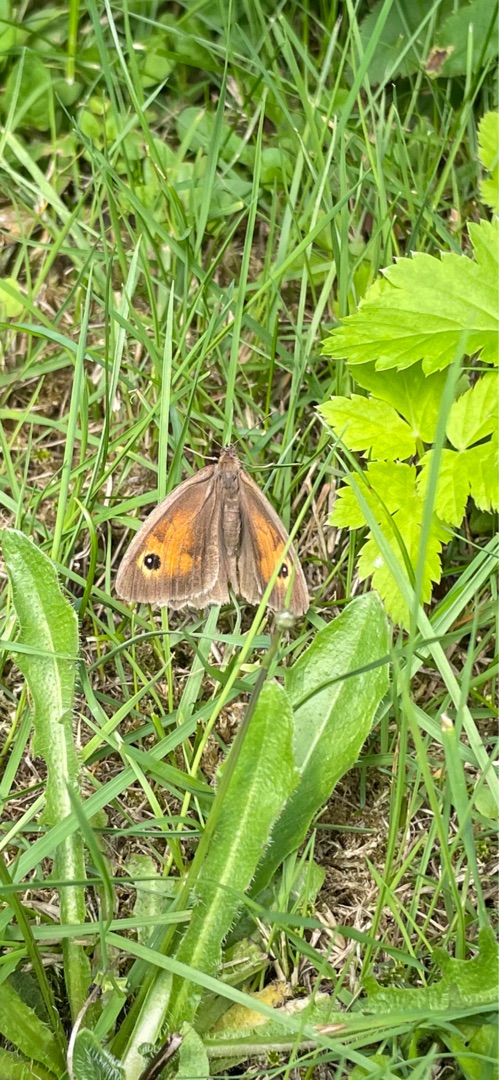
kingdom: Animalia
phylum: Arthropoda
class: Insecta
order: Lepidoptera
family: Nymphalidae
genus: Maniola
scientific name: Maniola jurtina
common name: Græsrandøje
